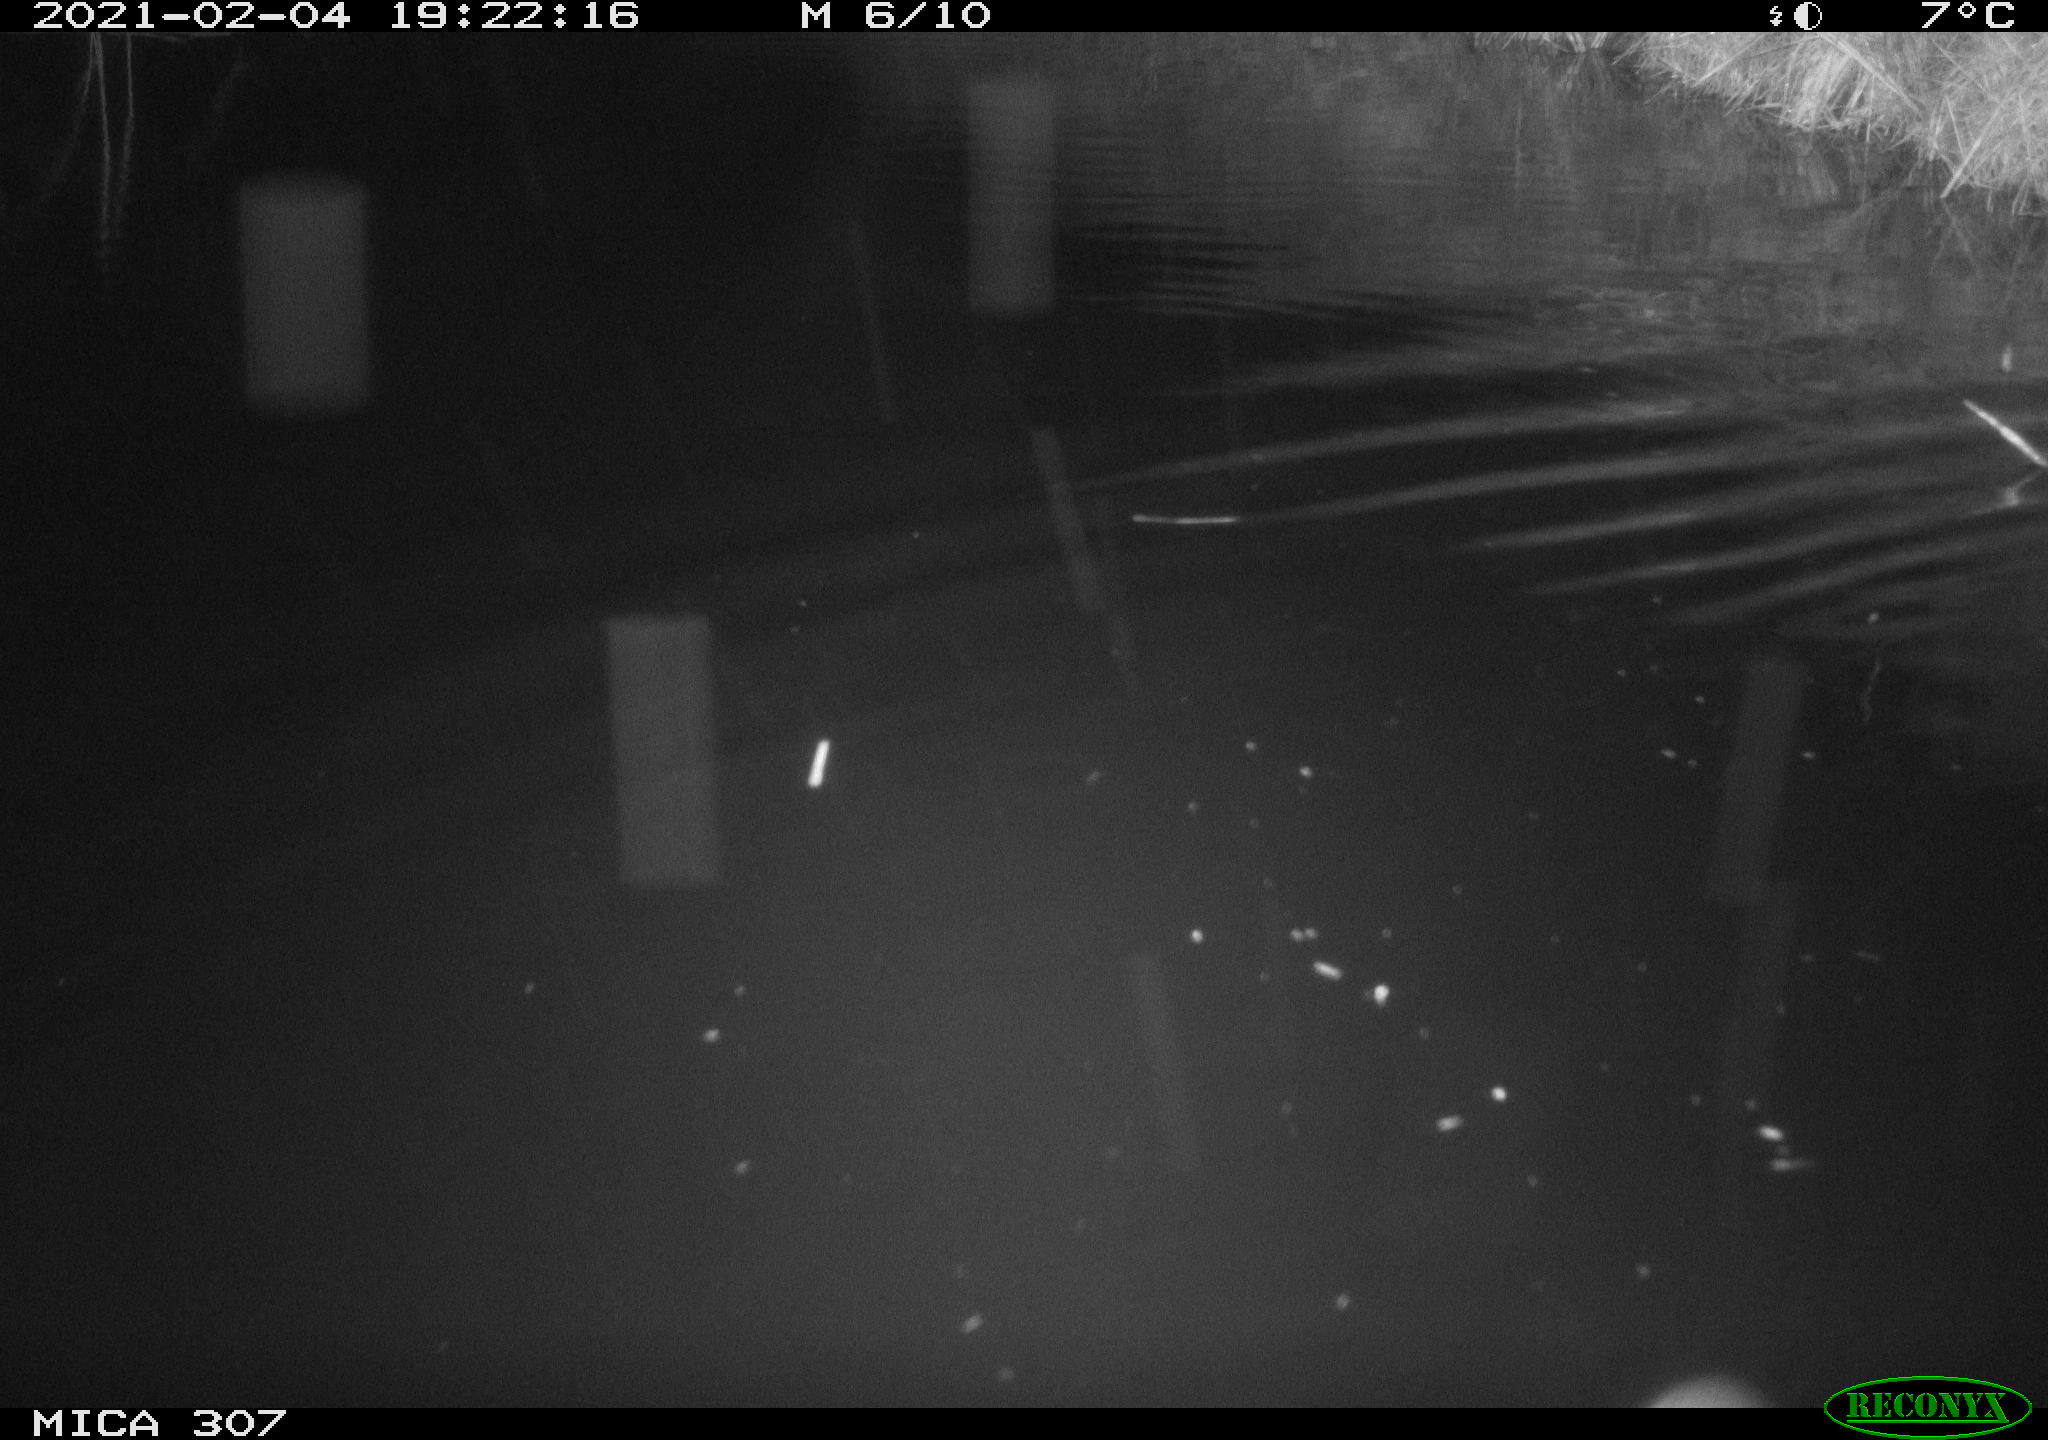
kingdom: Animalia
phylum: Chordata
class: Mammalia
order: Rodentia
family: Muridae
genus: Rattus
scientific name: Rattus norvegicus
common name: Brown rat
